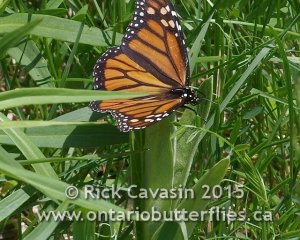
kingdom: Animalia
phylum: Arthropoda
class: Insecta
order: Lepidoptera
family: Nymphalidae
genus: Danaus
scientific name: Danaus plexippus
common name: Monarch
